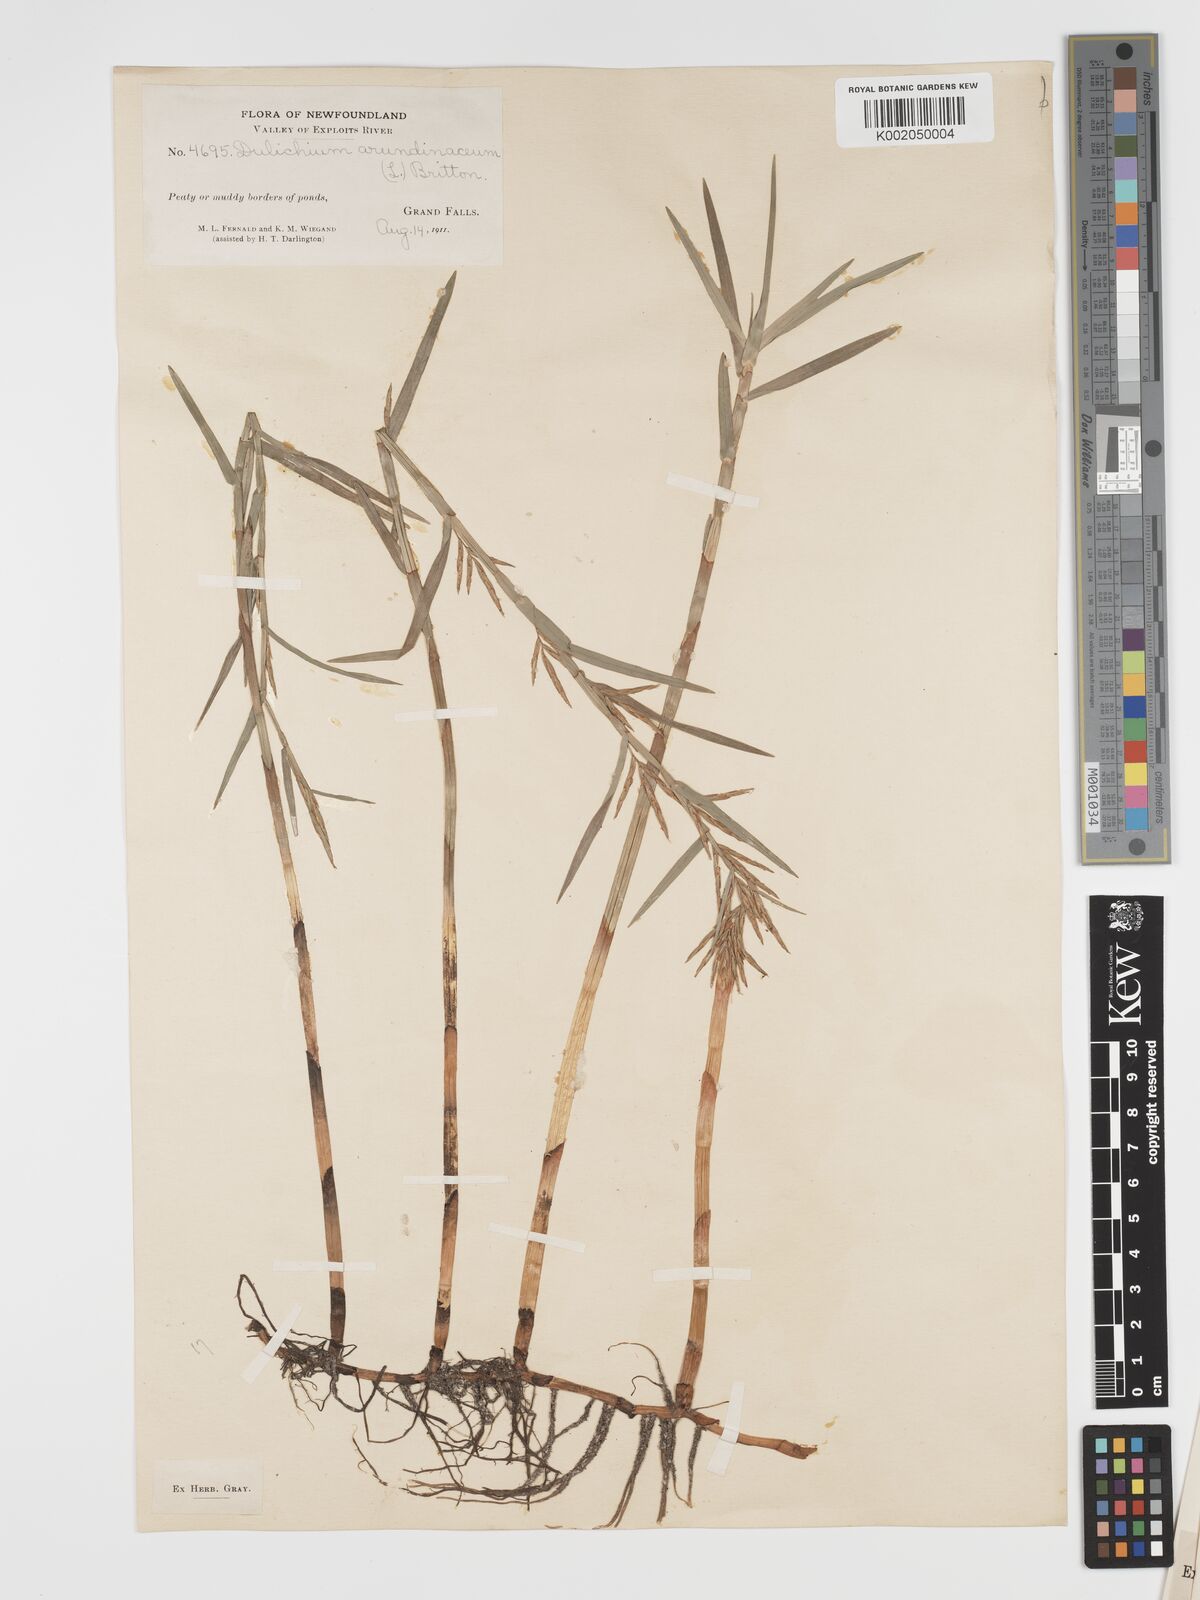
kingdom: Plantae
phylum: Tracheophyta
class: Liliopsida
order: Poales
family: Cyperaceae
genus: Dulichium
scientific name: Dulichium arundinaceum
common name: Three-way sedge
